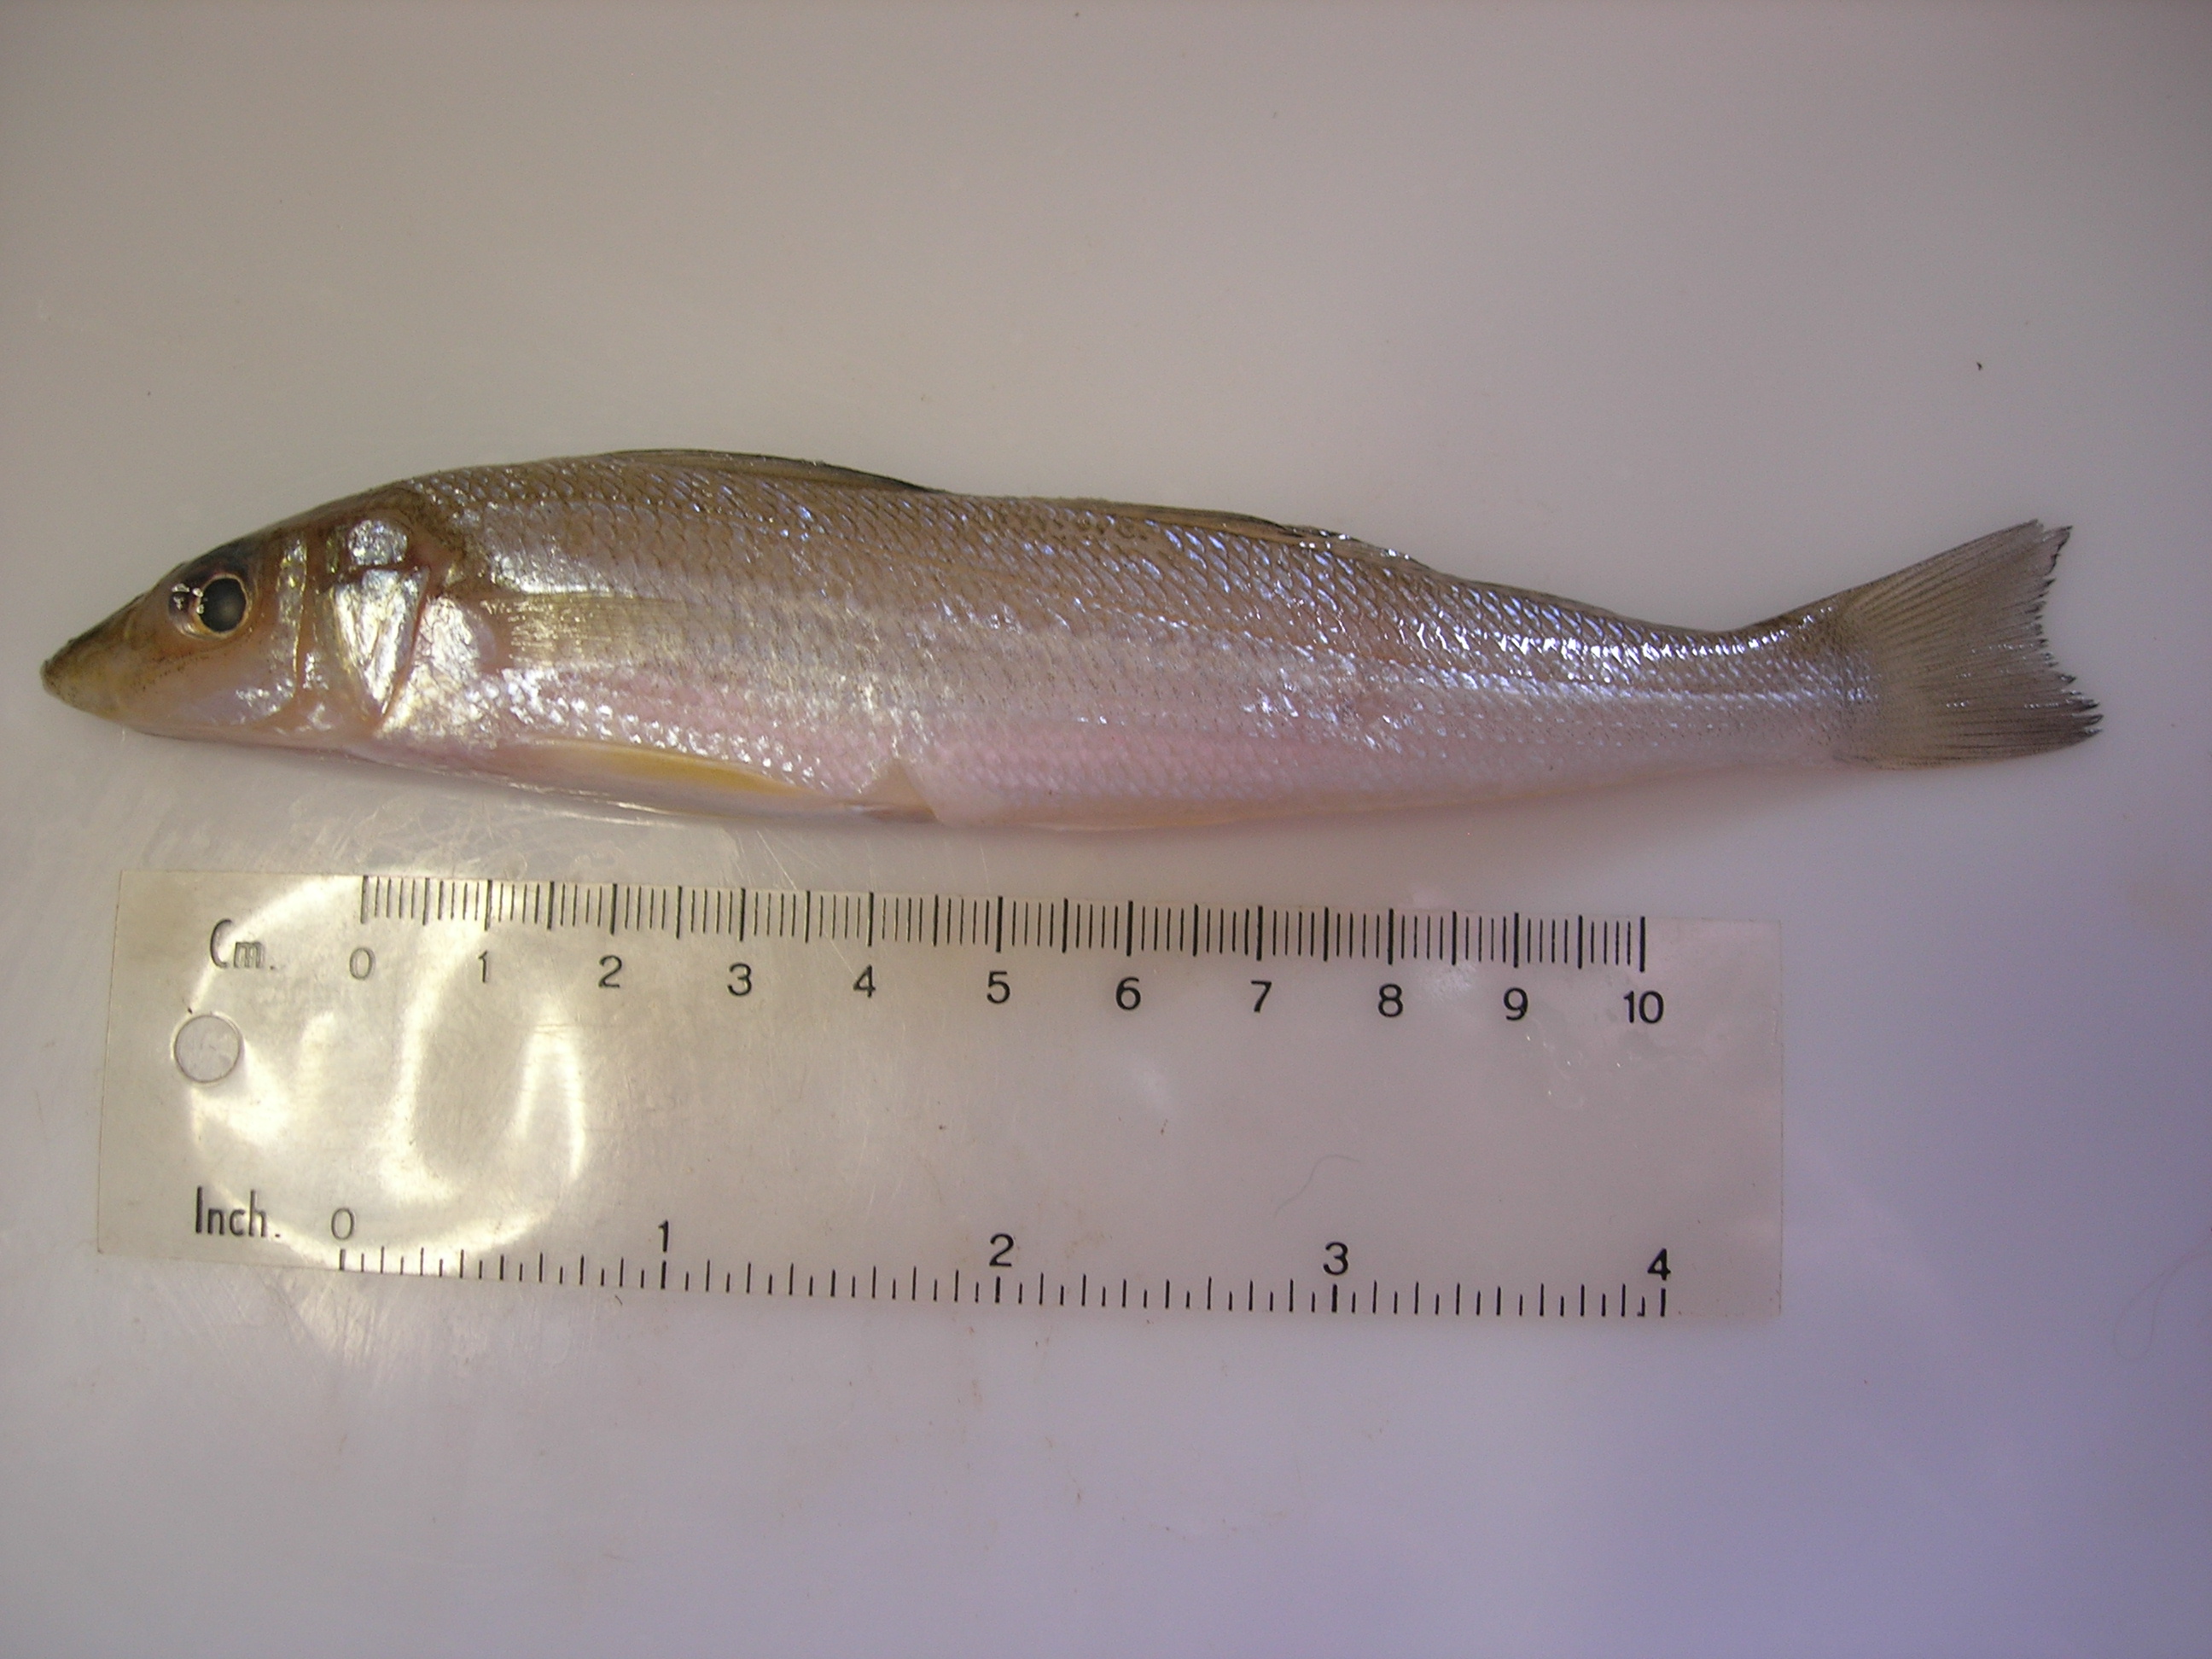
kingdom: Animalia
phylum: Chordata
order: Perciformes
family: Sillaginidae
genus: Sillago
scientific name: Sillago sihama
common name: Silver sillago
